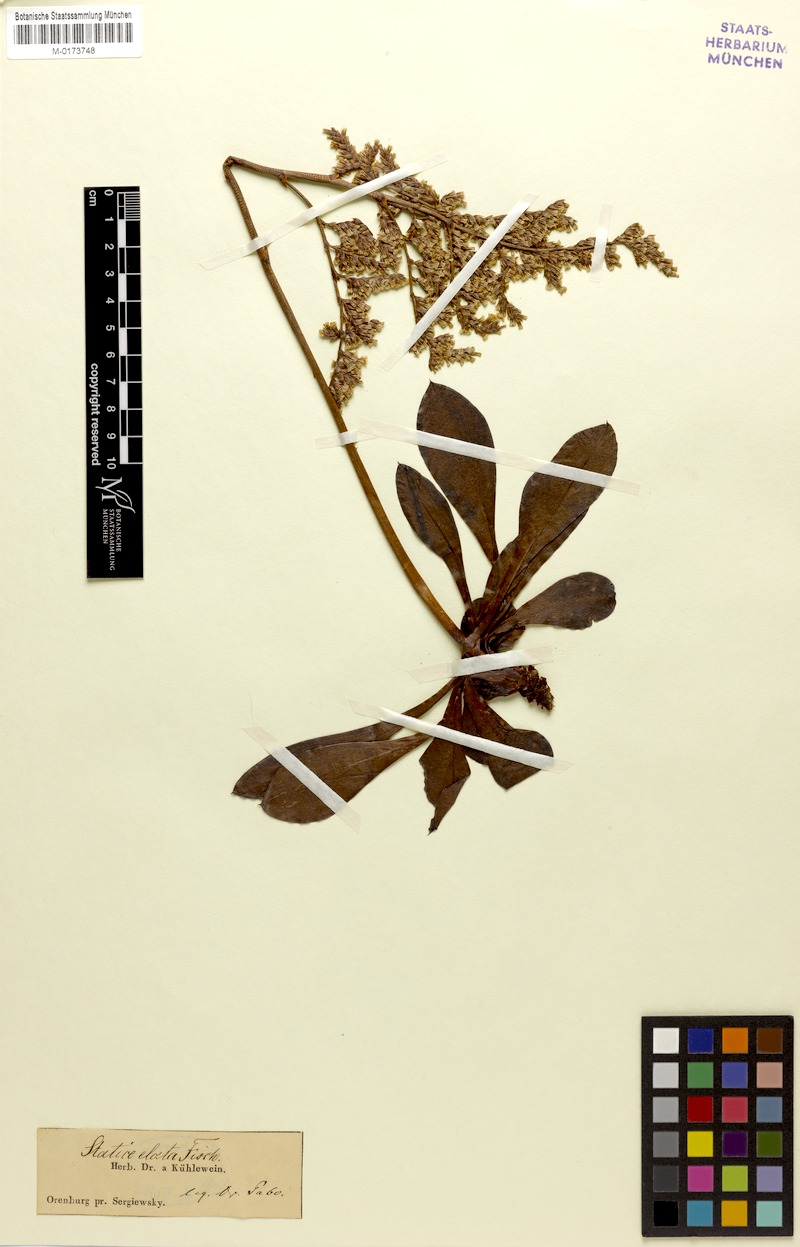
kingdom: Plantae
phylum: Tracheophyta
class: Magnoliopsida
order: Caryophyllales
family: Plumbaginaceae
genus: Goniolimon
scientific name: Goniolimon elatum
